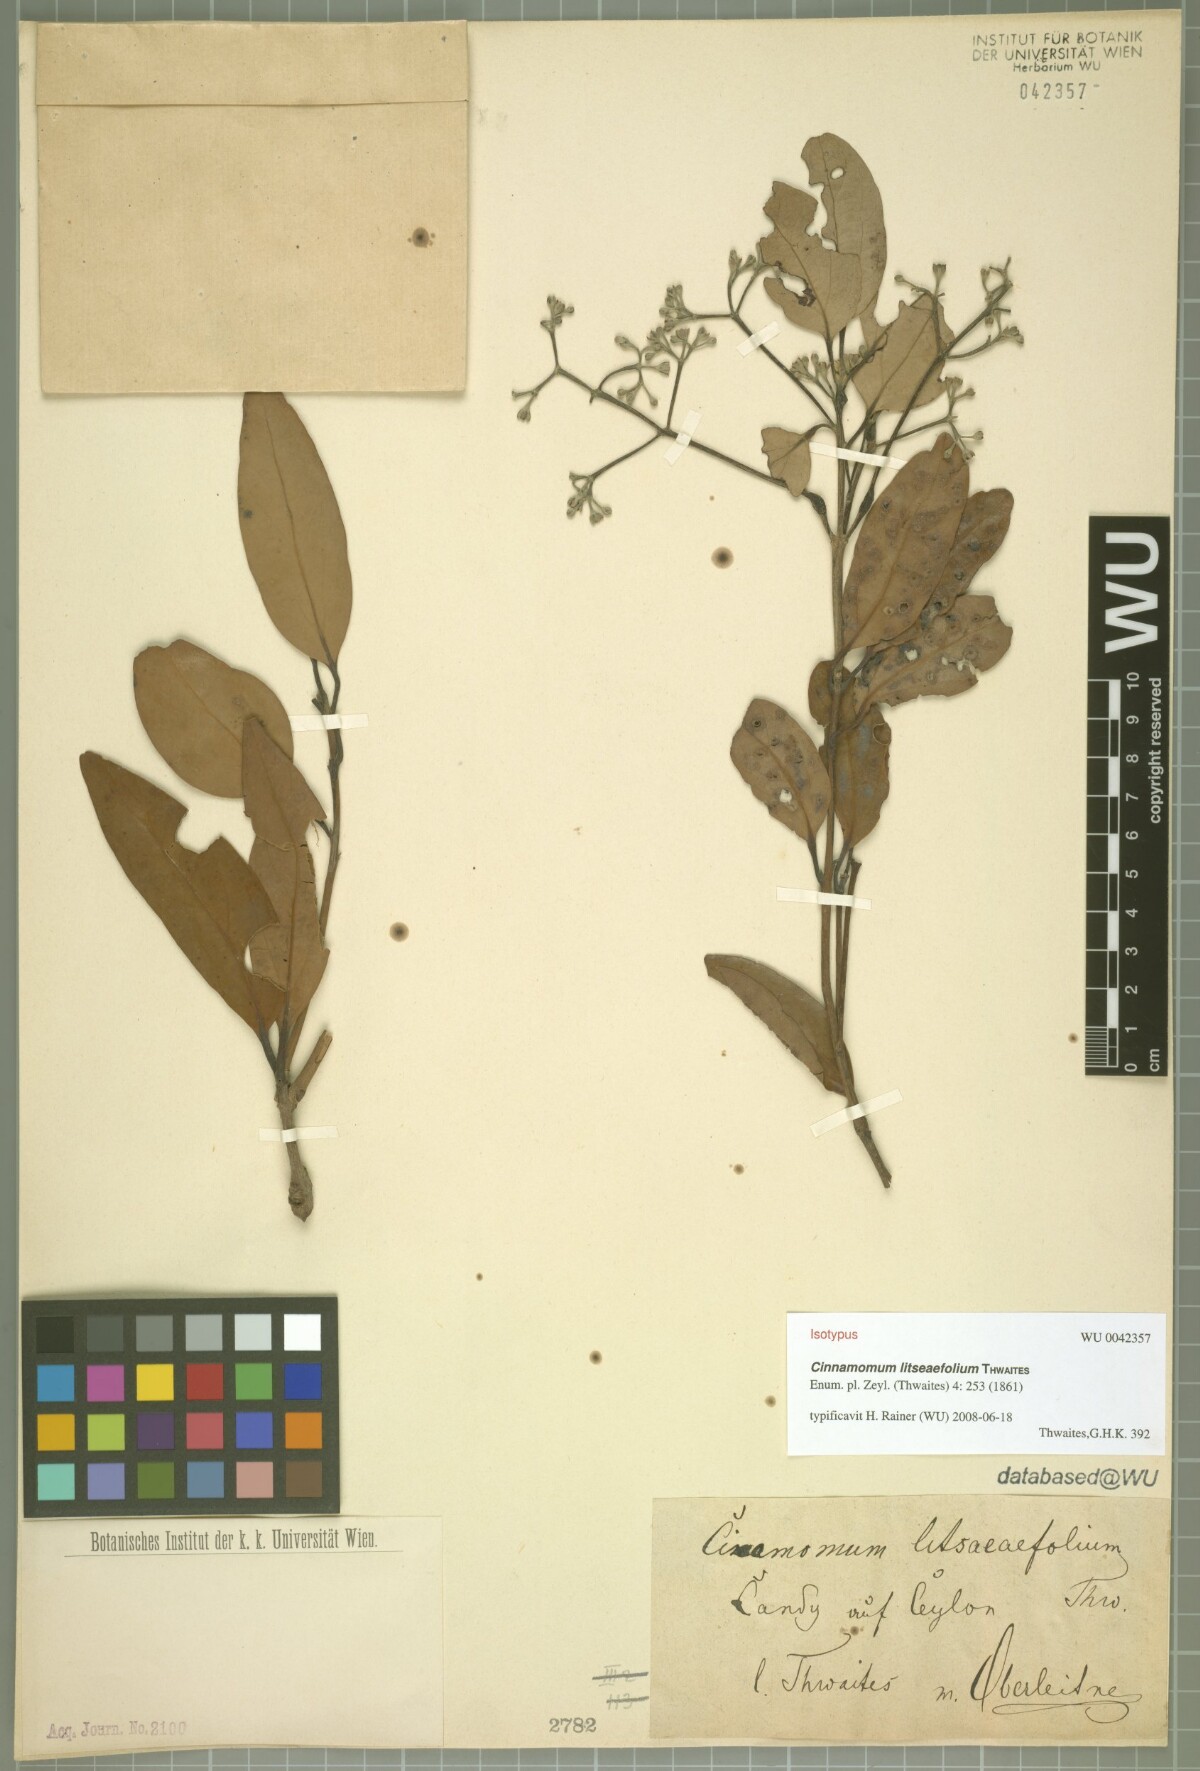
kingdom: Plantae
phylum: Tracheophyta
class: Magnoliopsida
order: Laurales
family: Lauraceae
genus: Cinnamomum
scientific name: Cinnamomum
